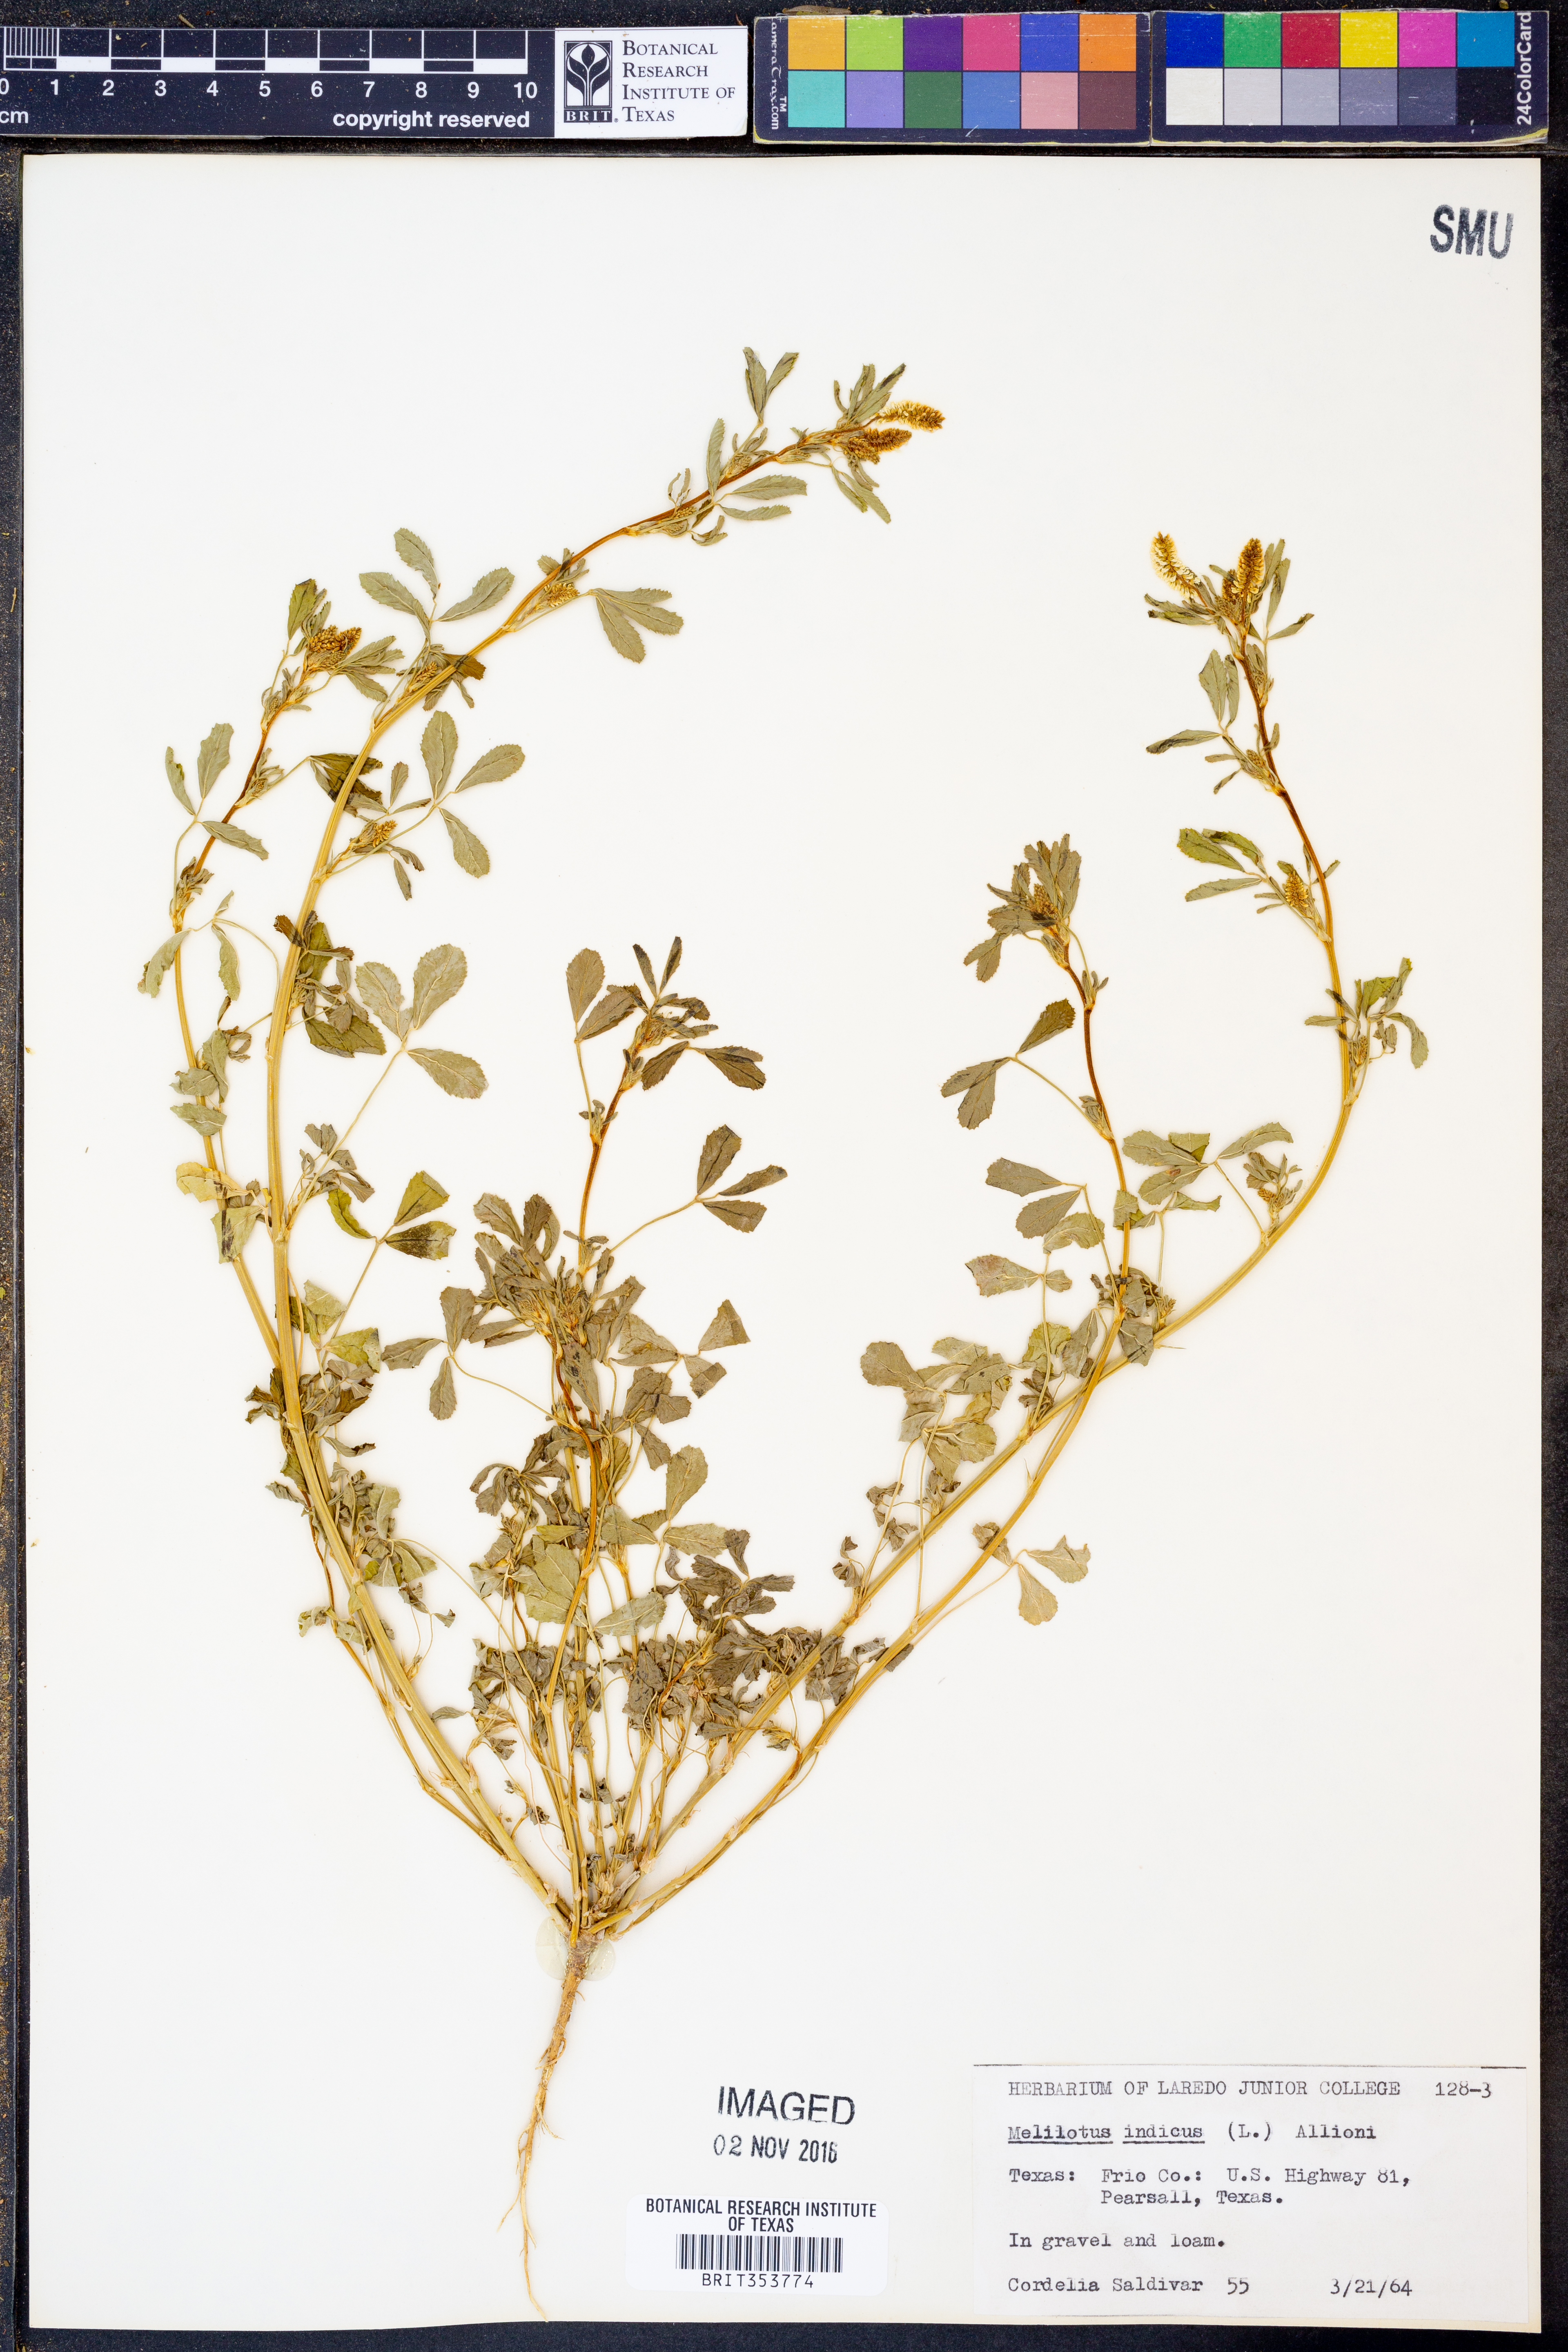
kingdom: Plantae
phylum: Tracheophyta
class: Magnoliopsida
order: Fabales
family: Fabaceae
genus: Melilotus
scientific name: Melilotus indicus
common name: Small melilot
